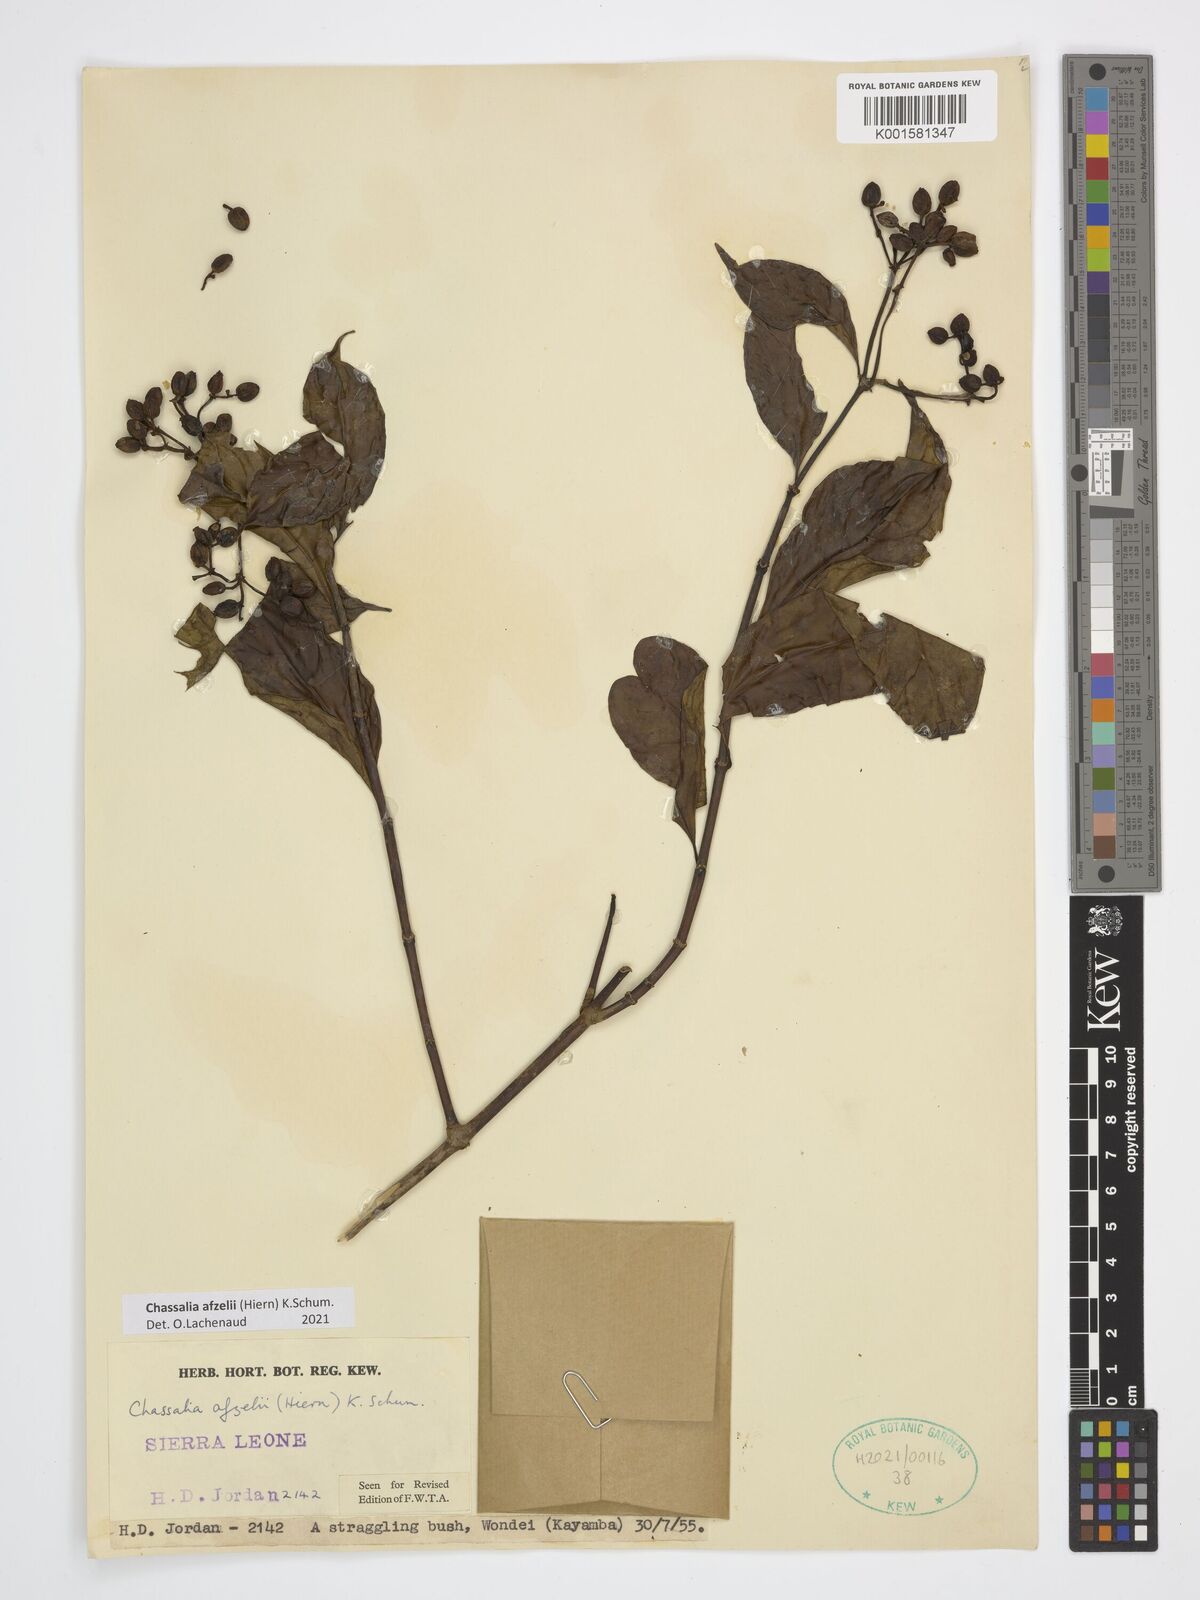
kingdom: Plantae
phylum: Tracheophyta
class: Magnoliopsida
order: Gentianales
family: Rubiaceae
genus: Chassalia
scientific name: Chassalia afzelii
